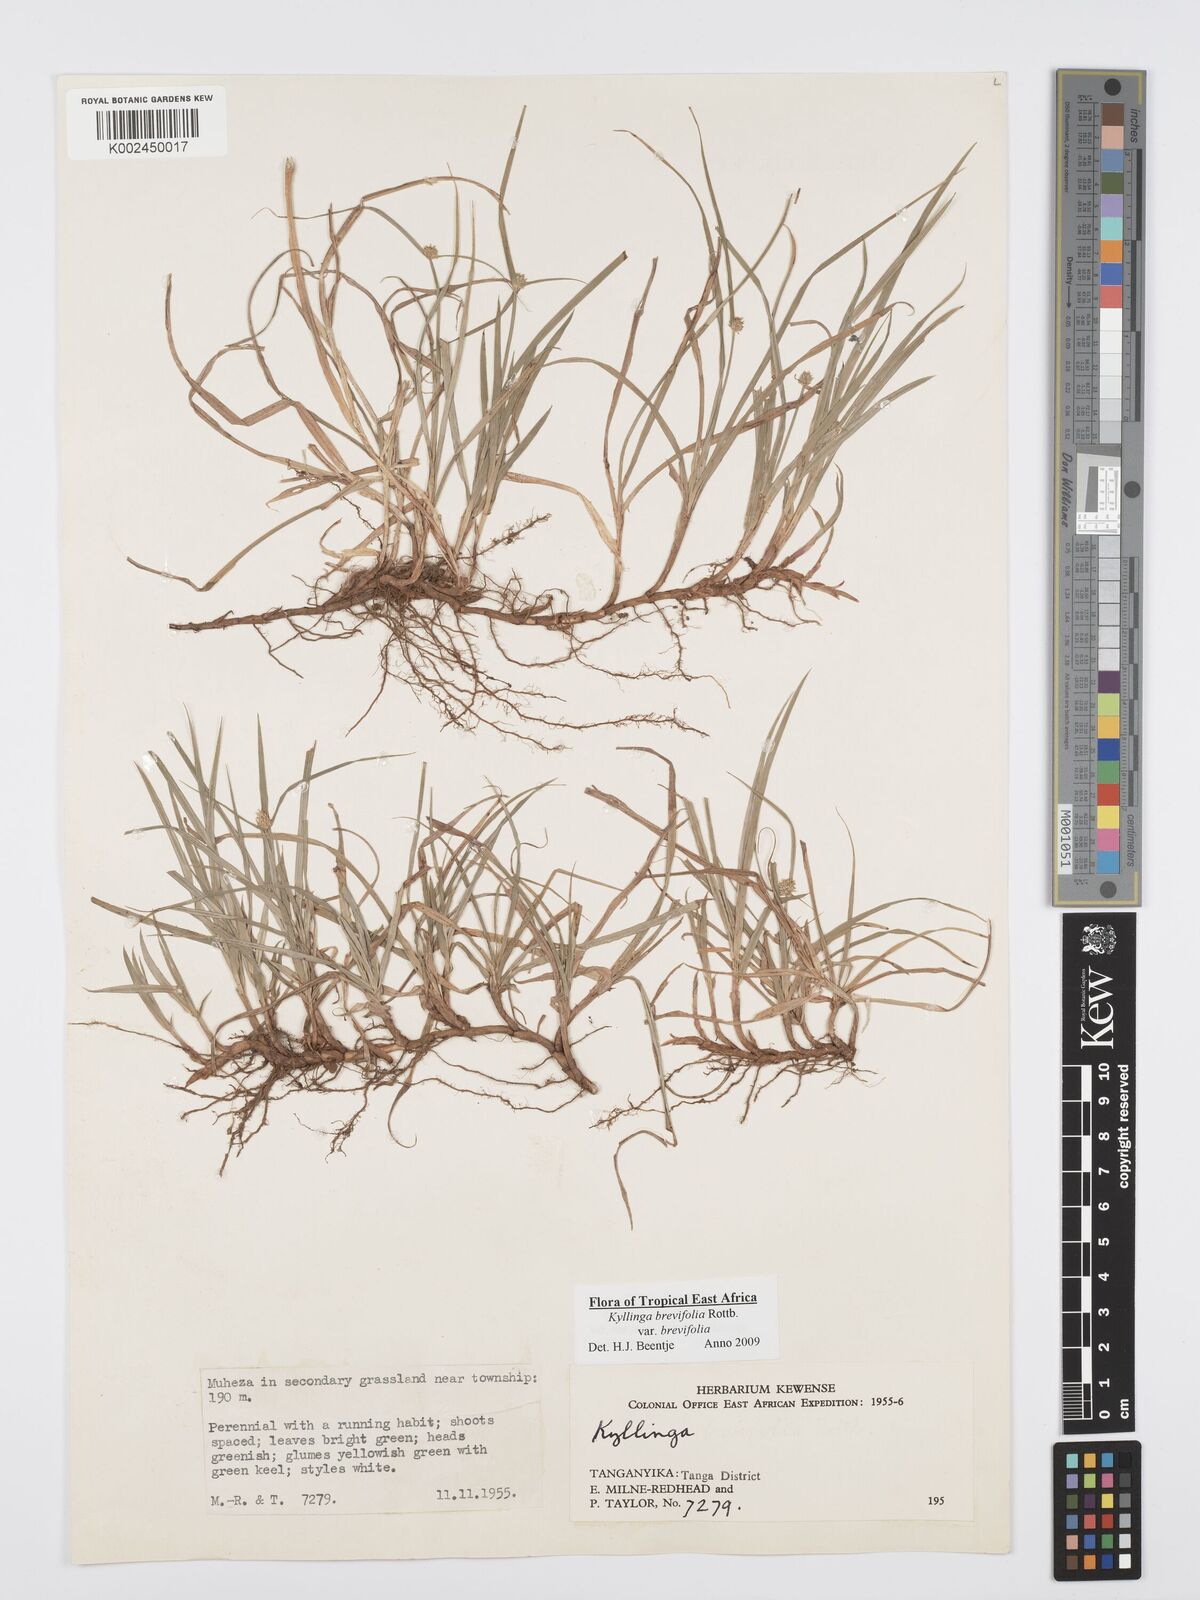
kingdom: Plantae
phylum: Tracheophyta
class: Liliopsida
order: Poales
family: Cyperaceae
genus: Cyperus
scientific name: Cyperus brevifolius
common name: Globe kyllinga
